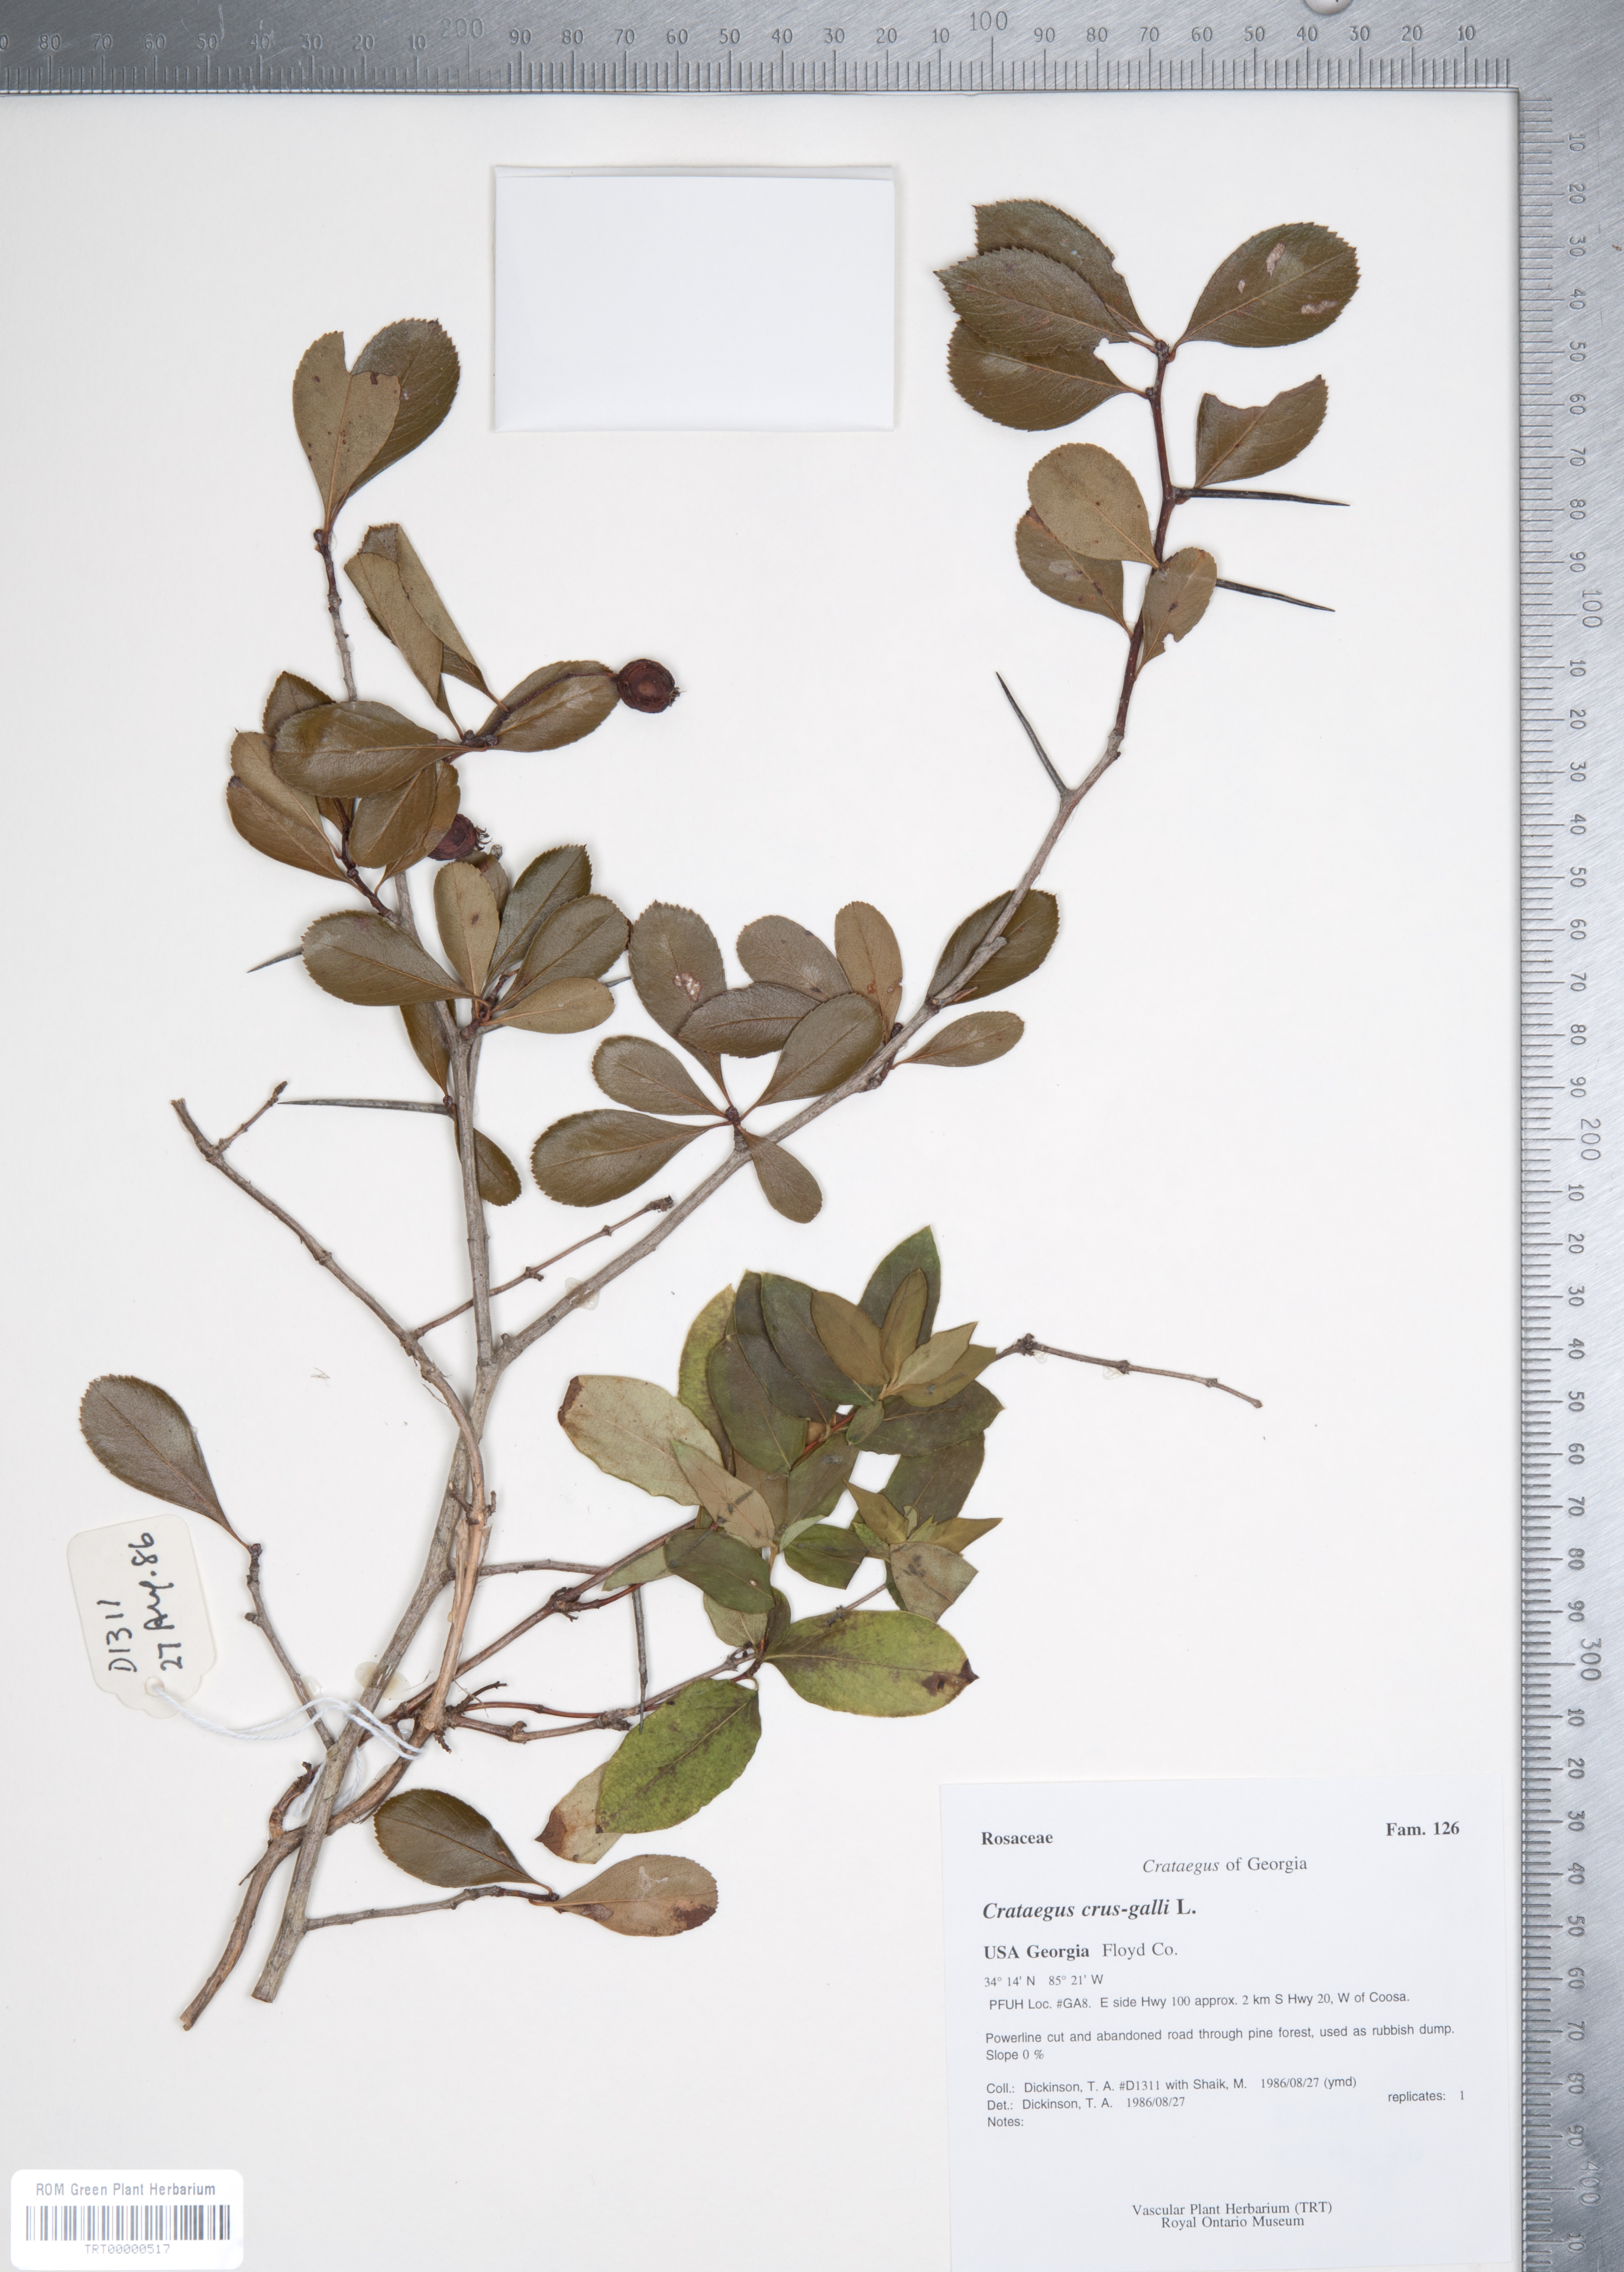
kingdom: Plantae
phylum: Tracheophyta
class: Magnoliopsida
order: Rosales
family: Rosaceae
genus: Crataegus
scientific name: Crataegus crus-galli
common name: Cockspurthorn
